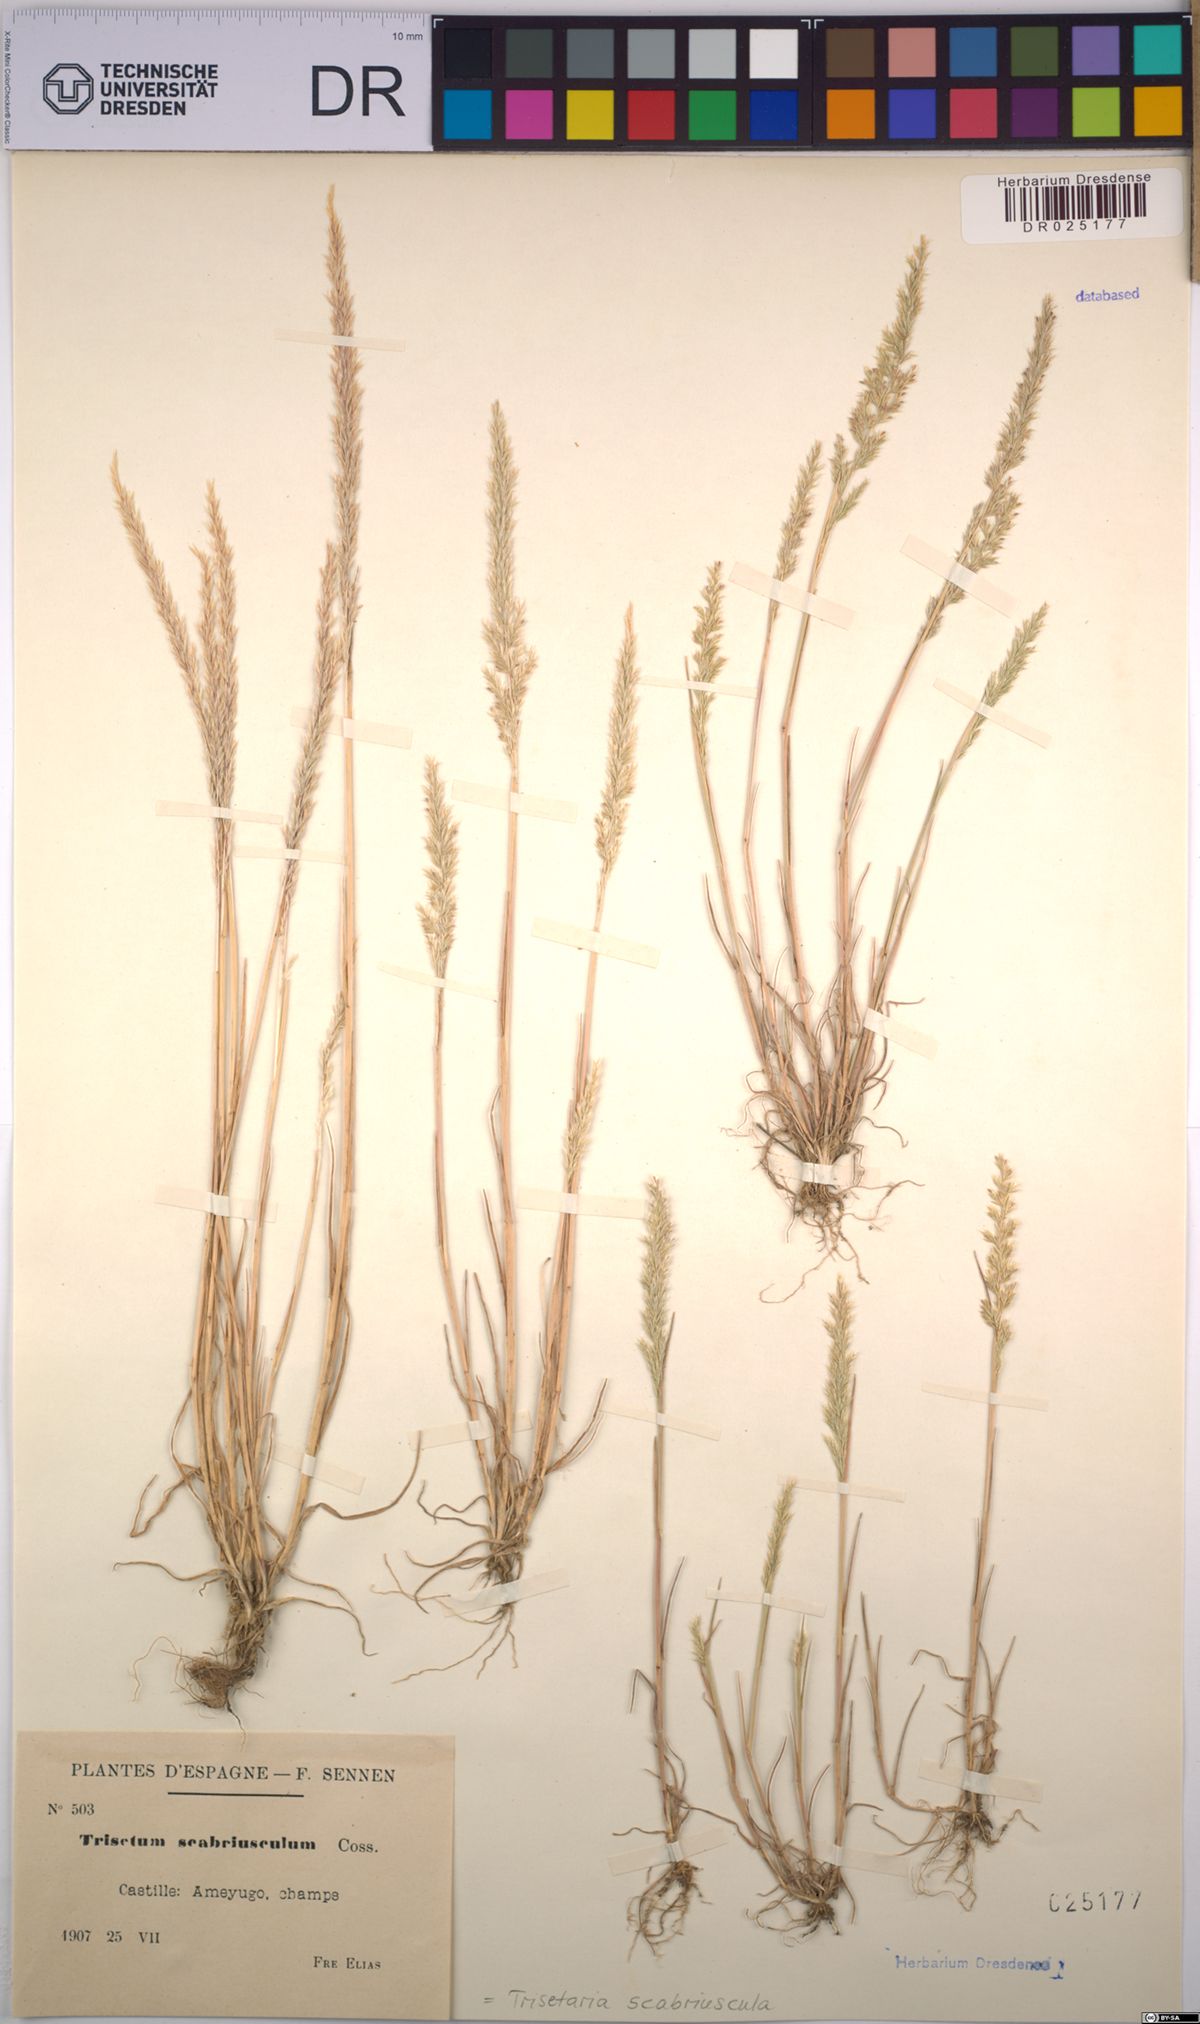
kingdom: Plantae
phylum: Tracheophyta
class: Liliopsida
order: Poales
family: Poaceae
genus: Trisetaria
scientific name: Trisetaria scabriuscula
